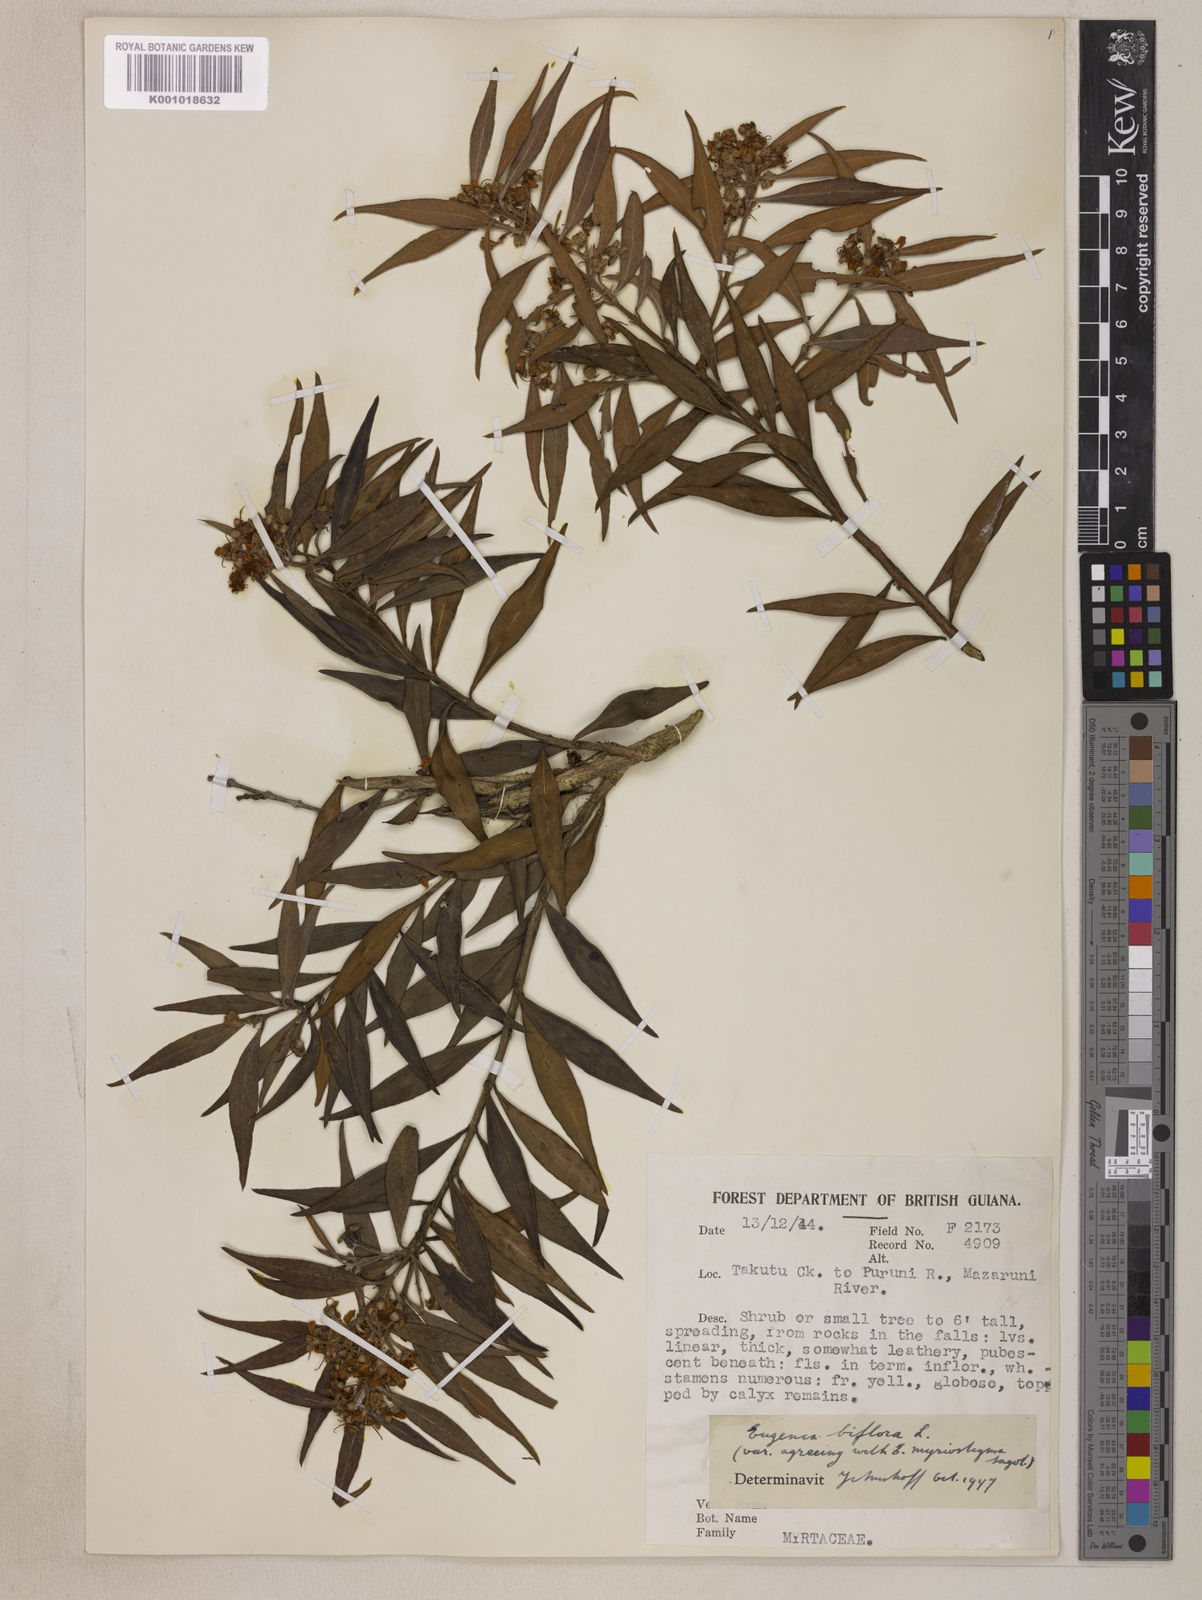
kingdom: Plantae
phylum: Tracheophyta
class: Magnoliopsida
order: Myrtales
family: Myrtaceae
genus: Eugenia
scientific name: Eugenia biflora
